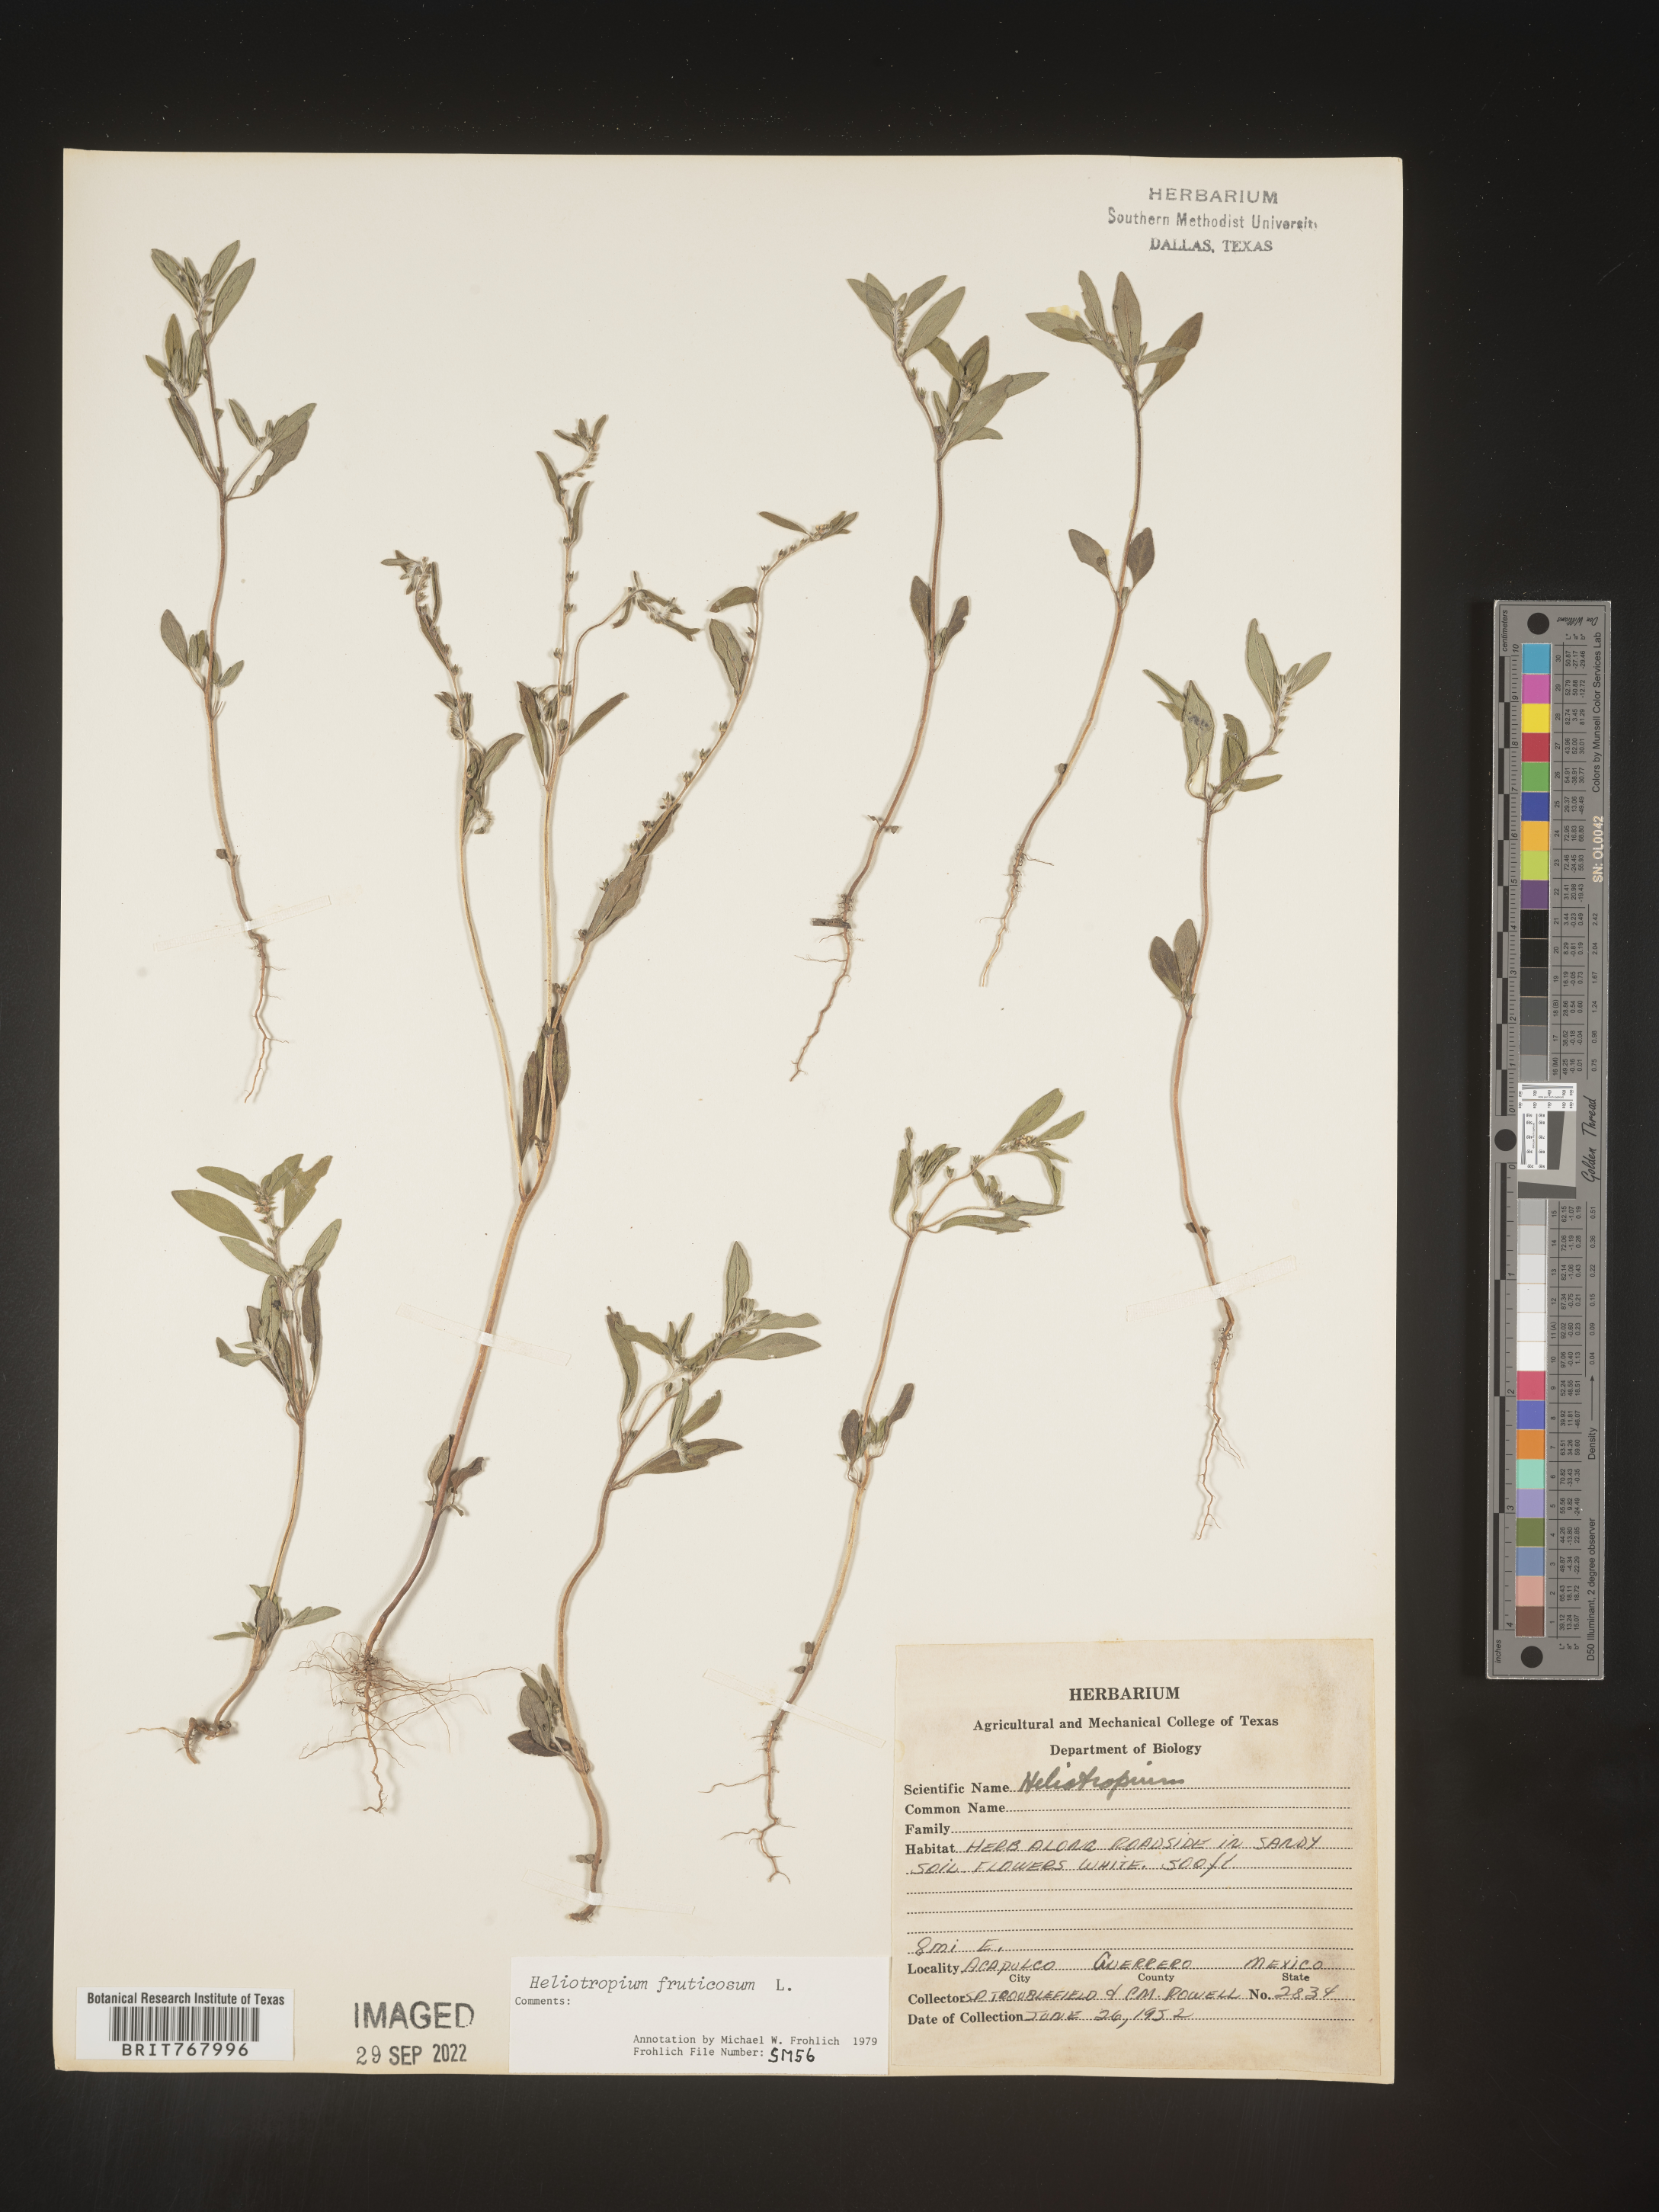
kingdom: Plantae
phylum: Tracheophyta
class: Magnoliopsida
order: Boraginales
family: Heliotropiaceae
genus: Heliotropium
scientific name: Heliotropium
